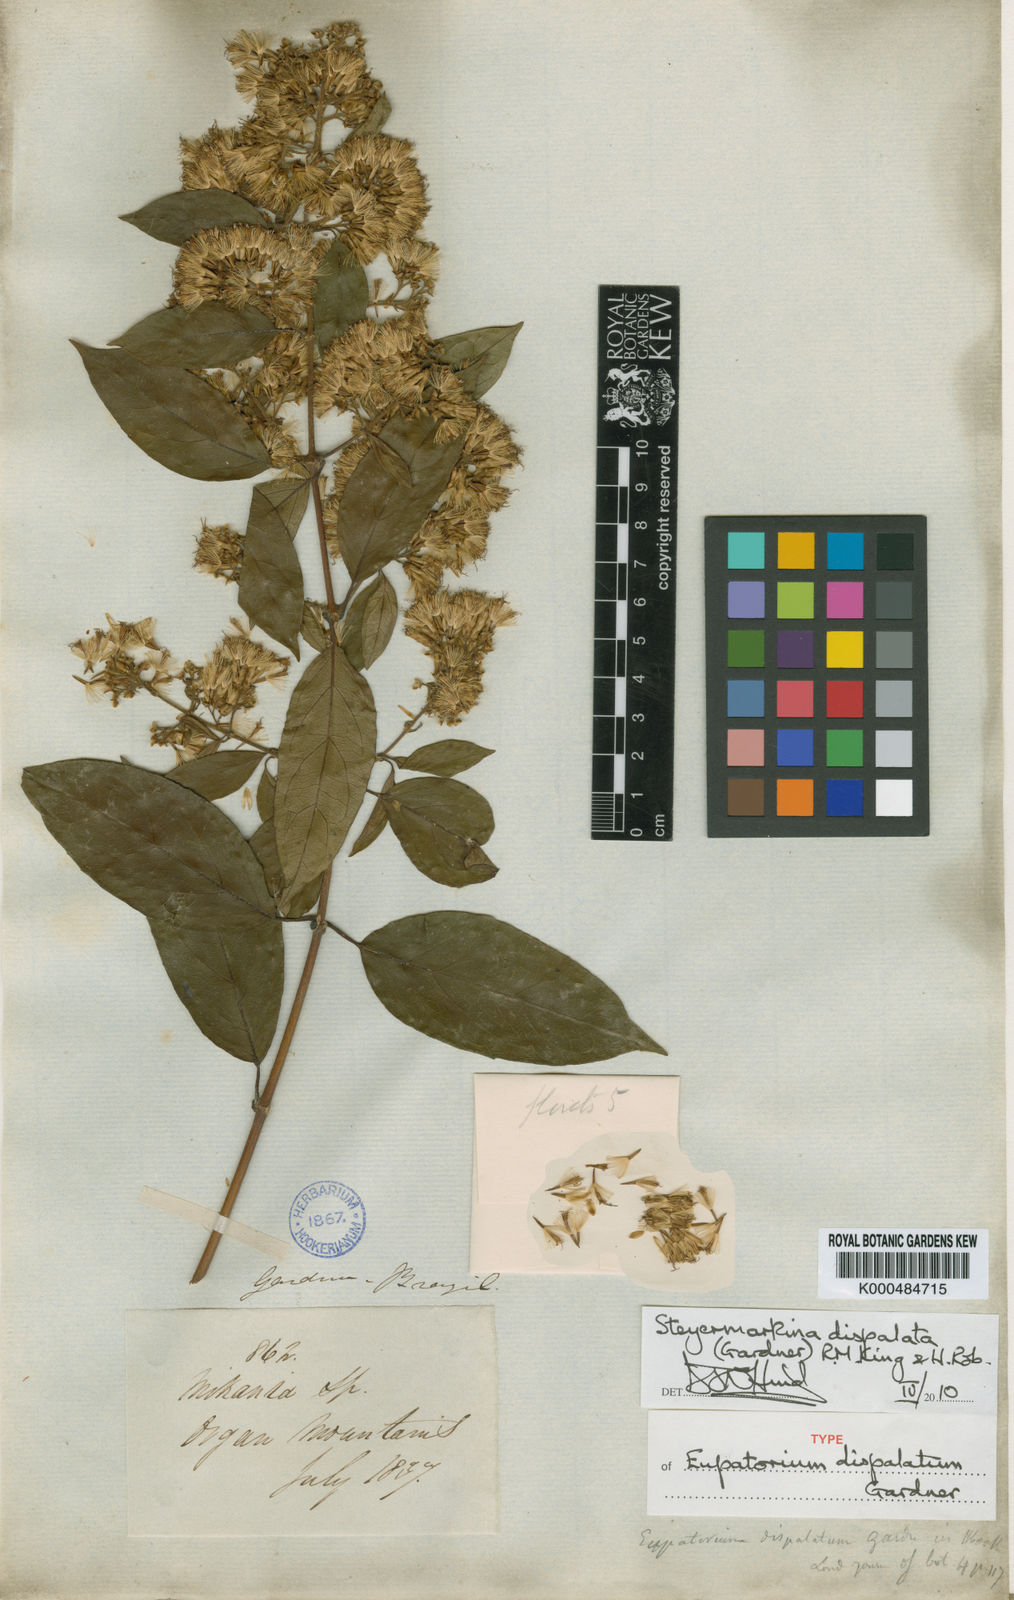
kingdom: Plantae
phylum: Tracheophyta
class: Magnoliopsida
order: Asterales
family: Asteraceae
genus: Steyermarkina
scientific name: Steyermarkina dispalata
